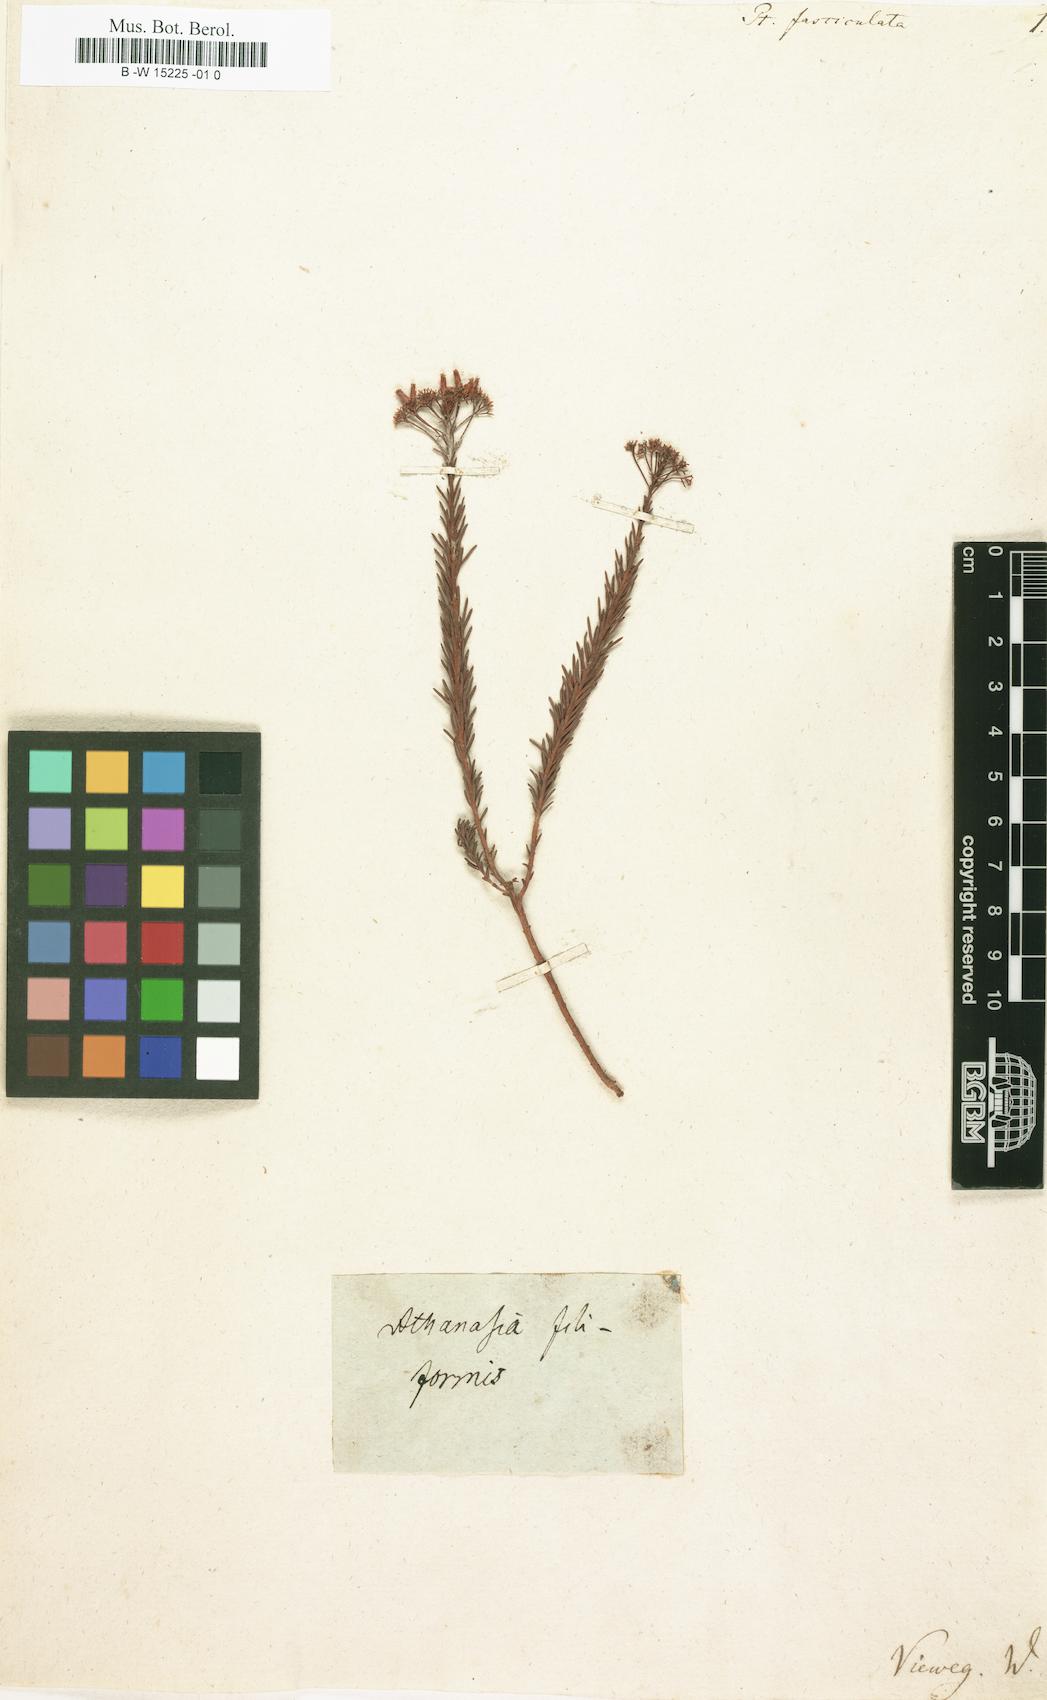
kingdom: Plantae
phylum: Tracheophyta
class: Magnoliopsida
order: Asterales
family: Asteraceae
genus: Pteronia
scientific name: Pteronia fasciculata
